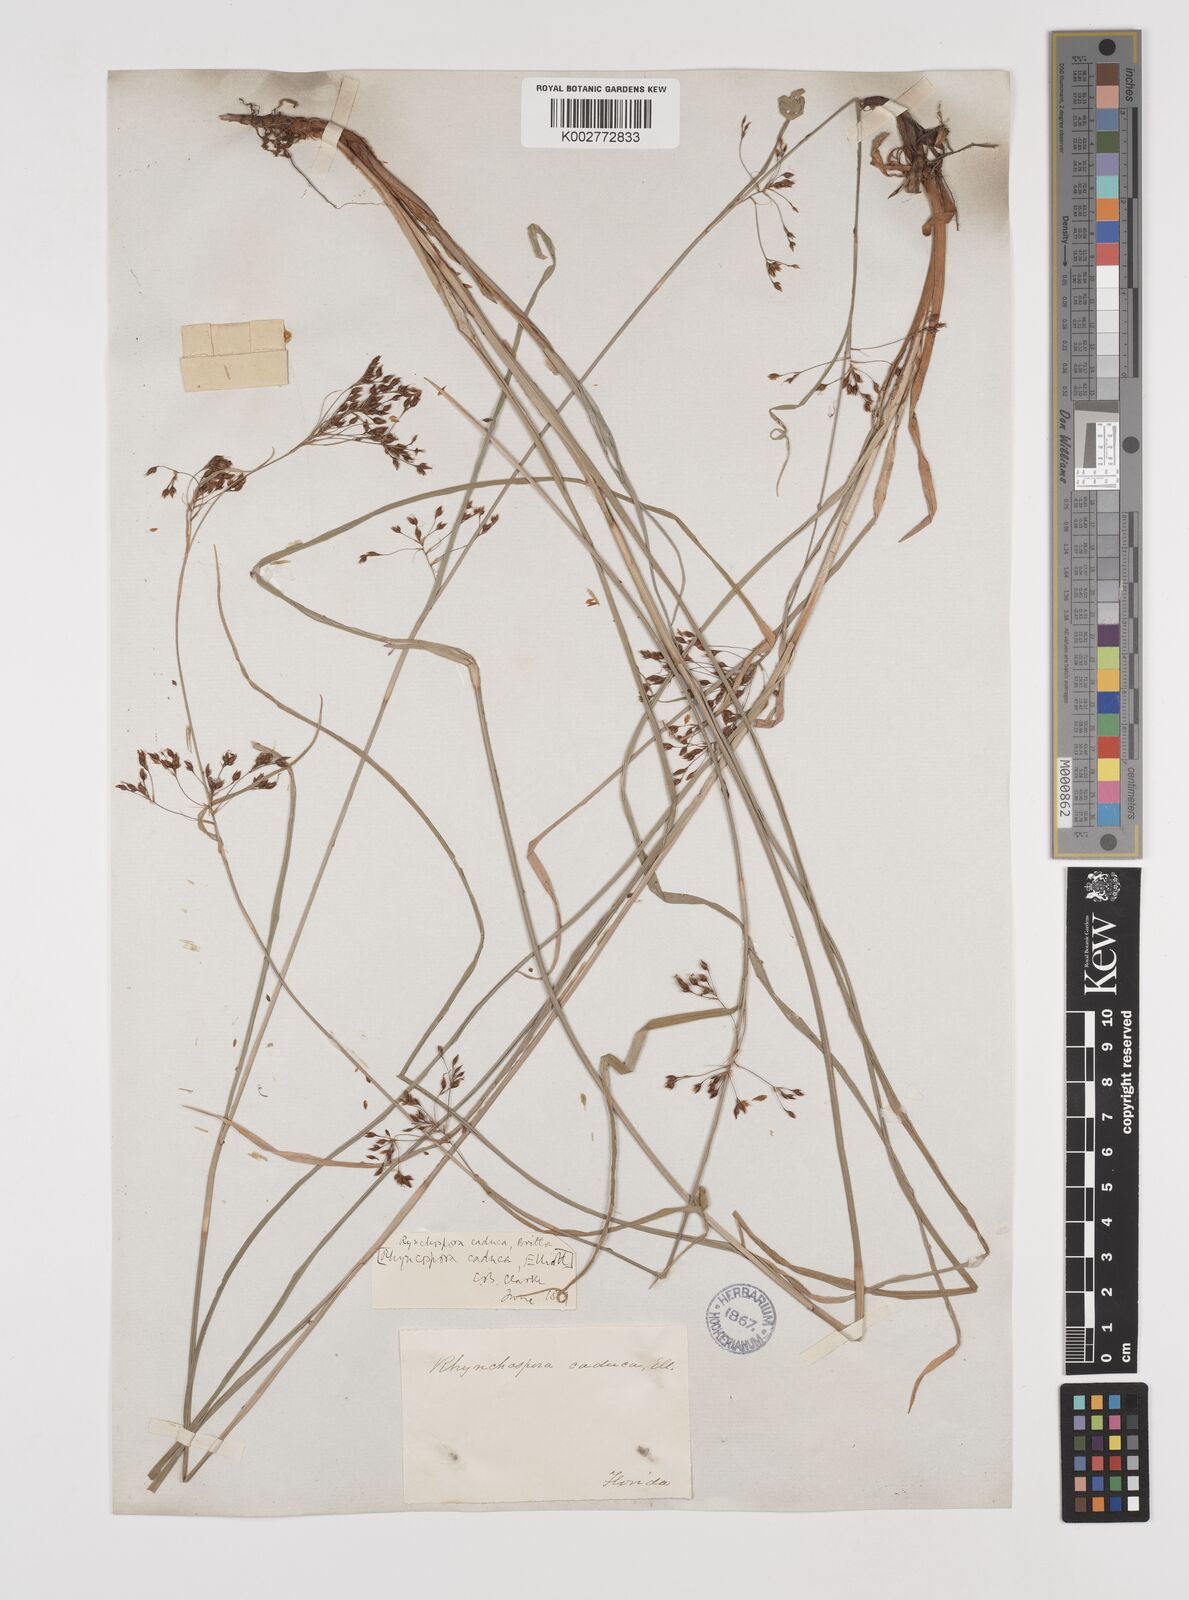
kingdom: Plantae
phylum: Tracheophyta
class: Liliopsida
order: Poales
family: Cyperaceae
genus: Rhynchospora
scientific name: Rhynchospora caduca
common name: Anglestem beaksedge
